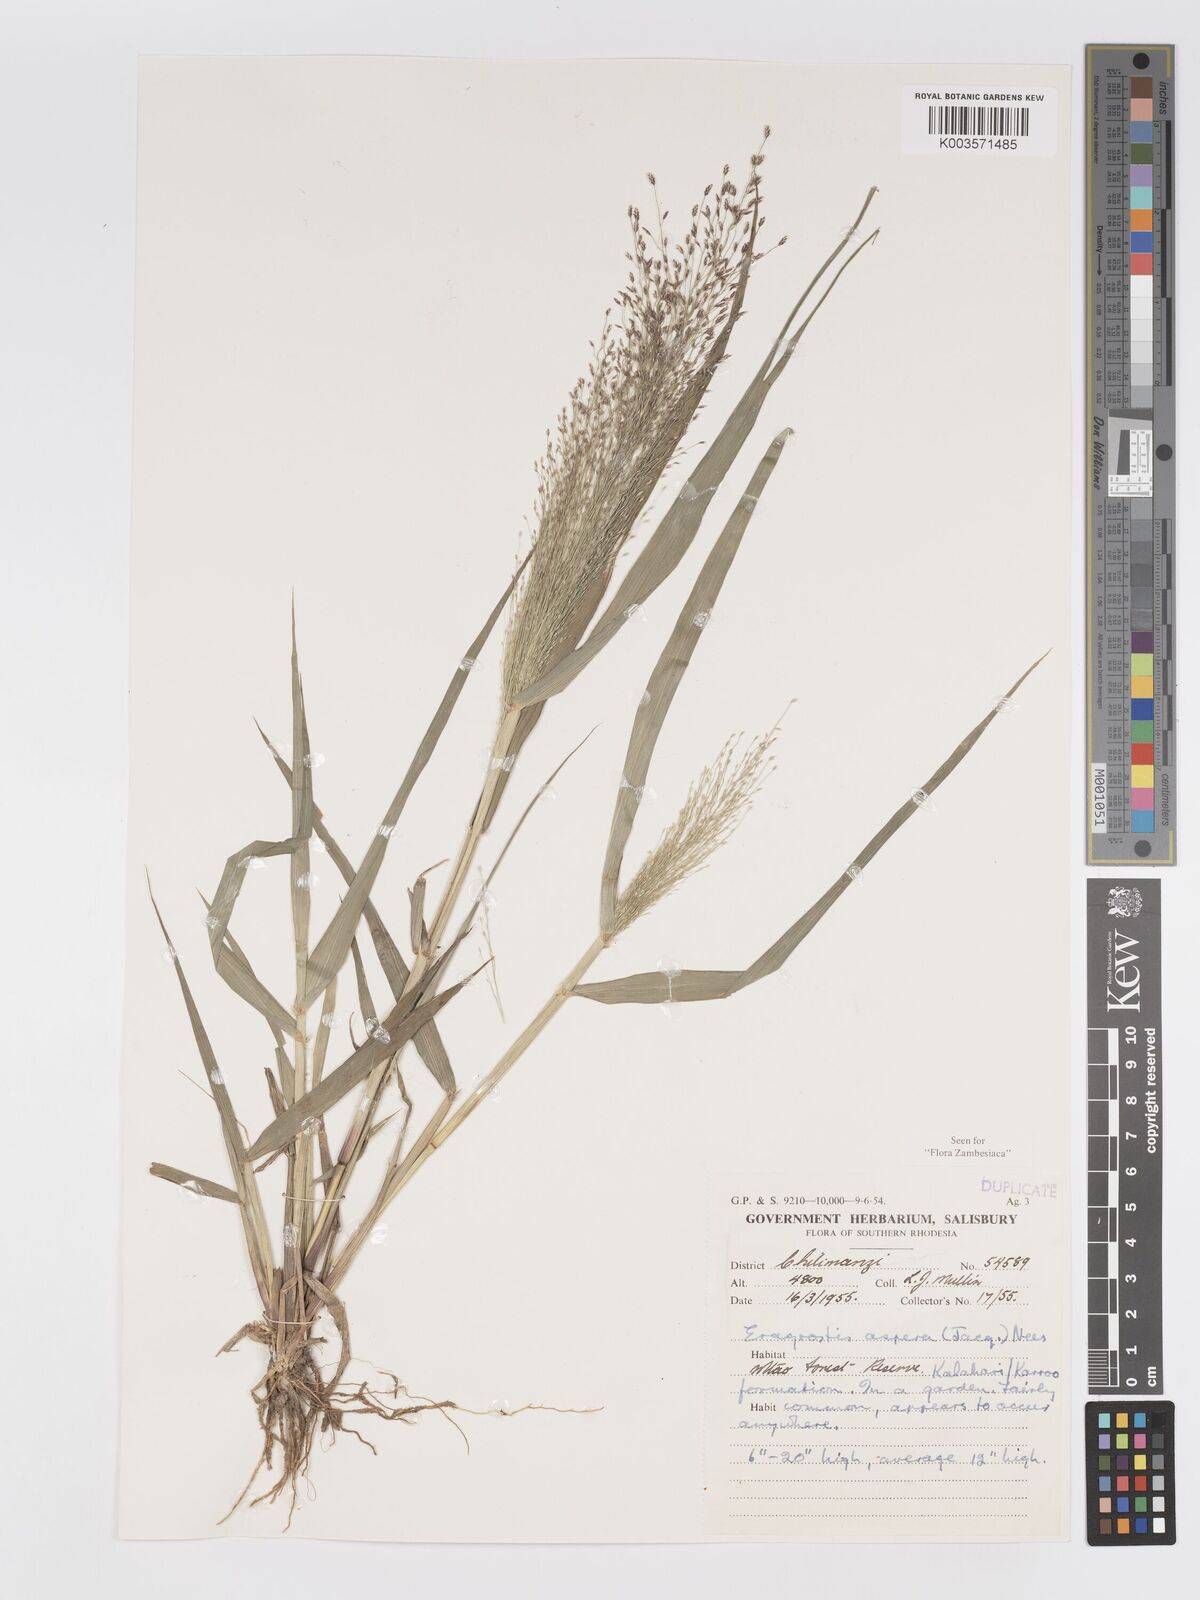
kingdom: Plantae
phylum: Tracheophyta
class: Liliopsida
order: Poales
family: Poaceae
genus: Eragrostis
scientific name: Eragrostis aspera
